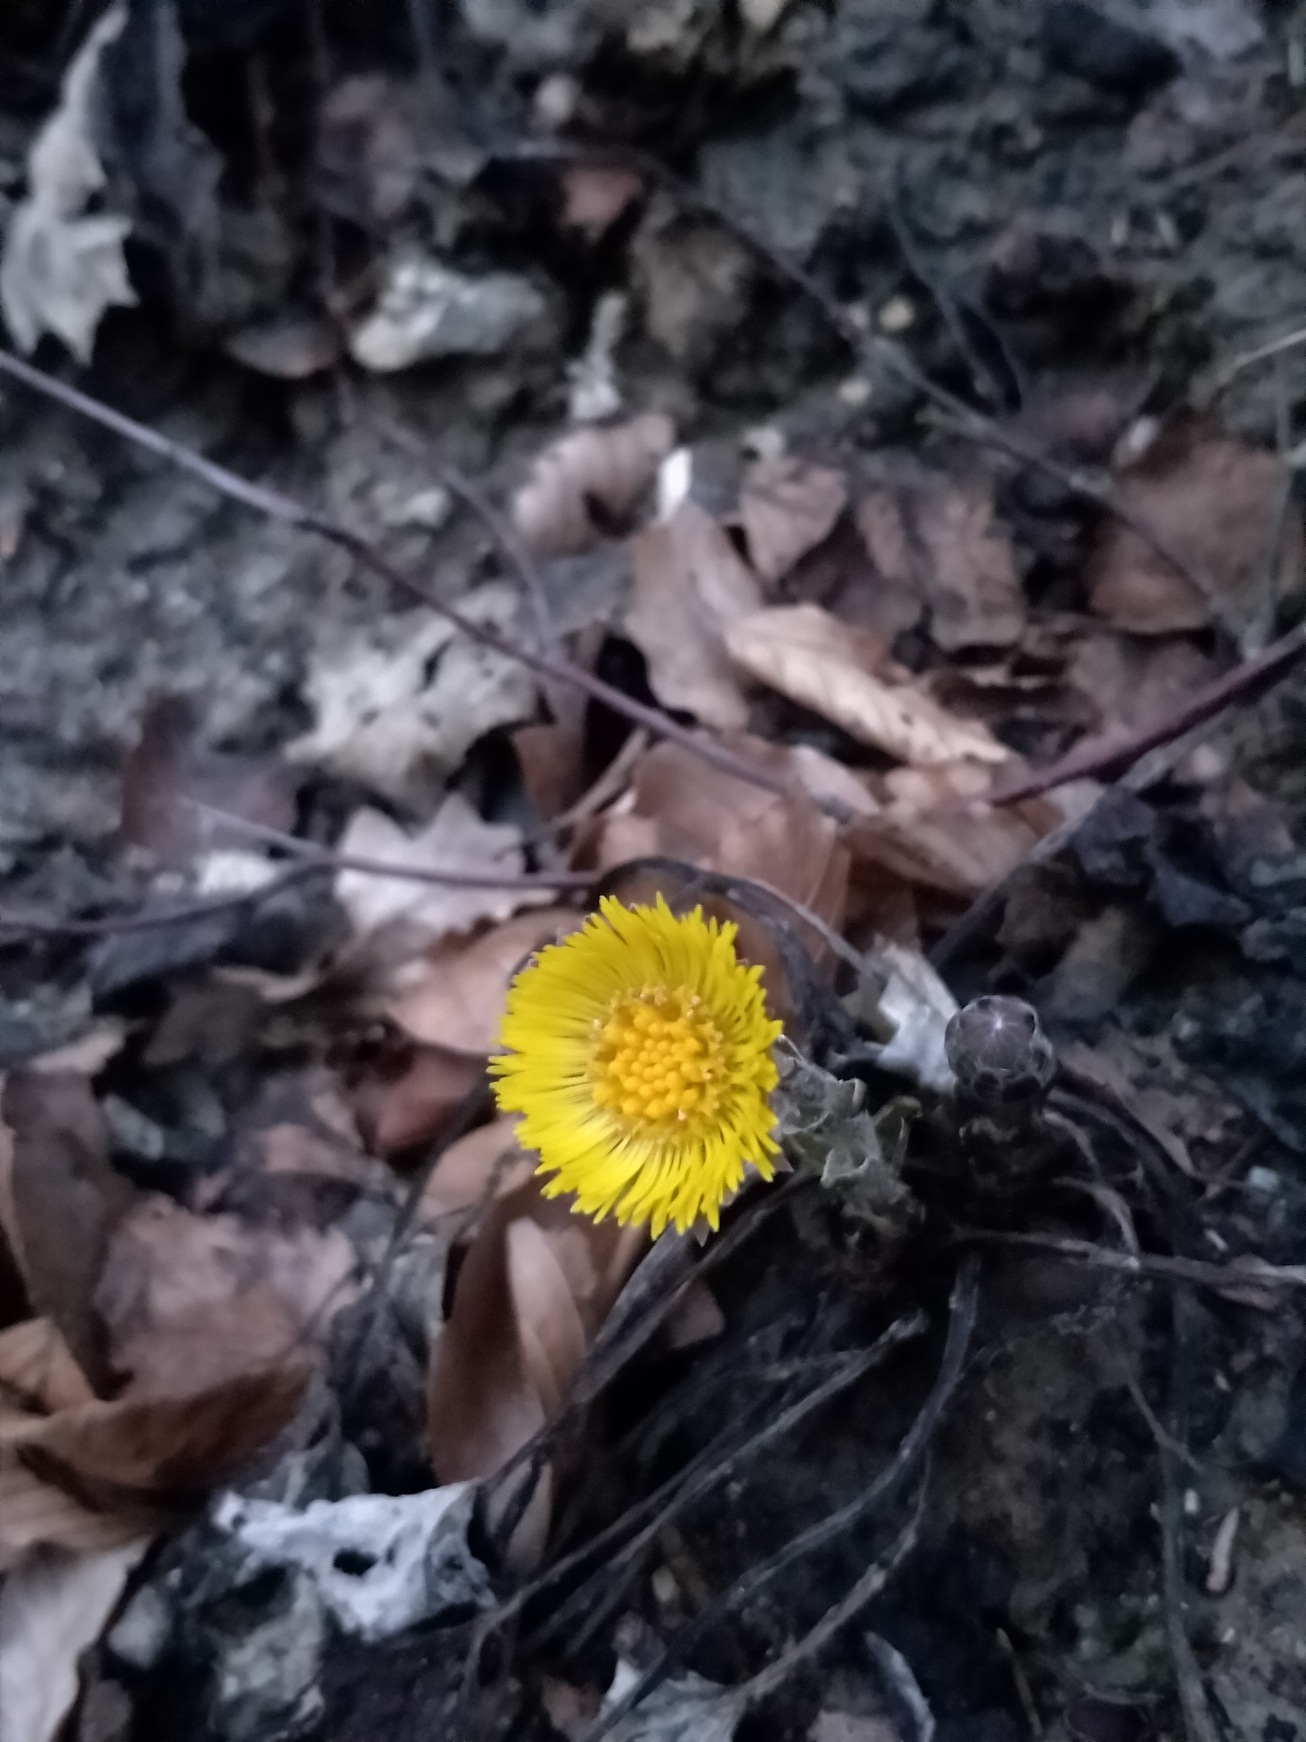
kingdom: Plantae
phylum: Tracheophyta
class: Magnoliopsida
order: Asterales
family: Asteraceae
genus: Tussilago
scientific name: Tussilago farfara
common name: Følfod
